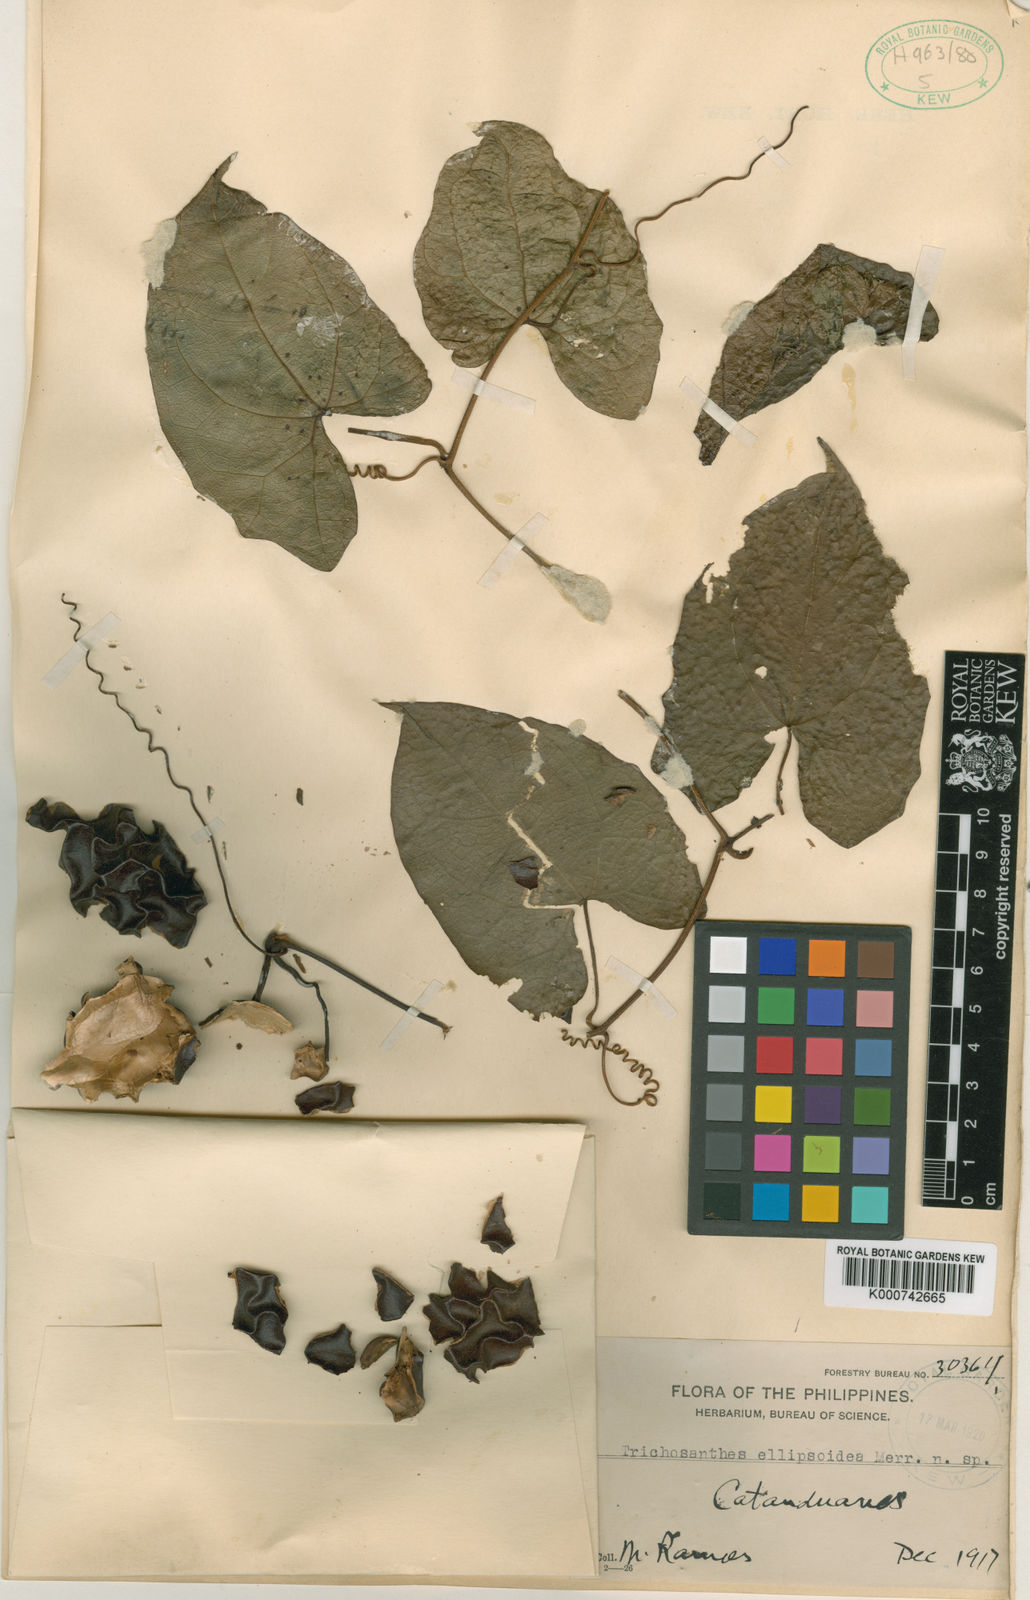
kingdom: Plantae
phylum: Tracheophyta
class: Magnoliopsida
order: Cucurbitales
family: Cucurbitaceae
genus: Trichosanthes
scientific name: Trichosanthes ellipsoidea
